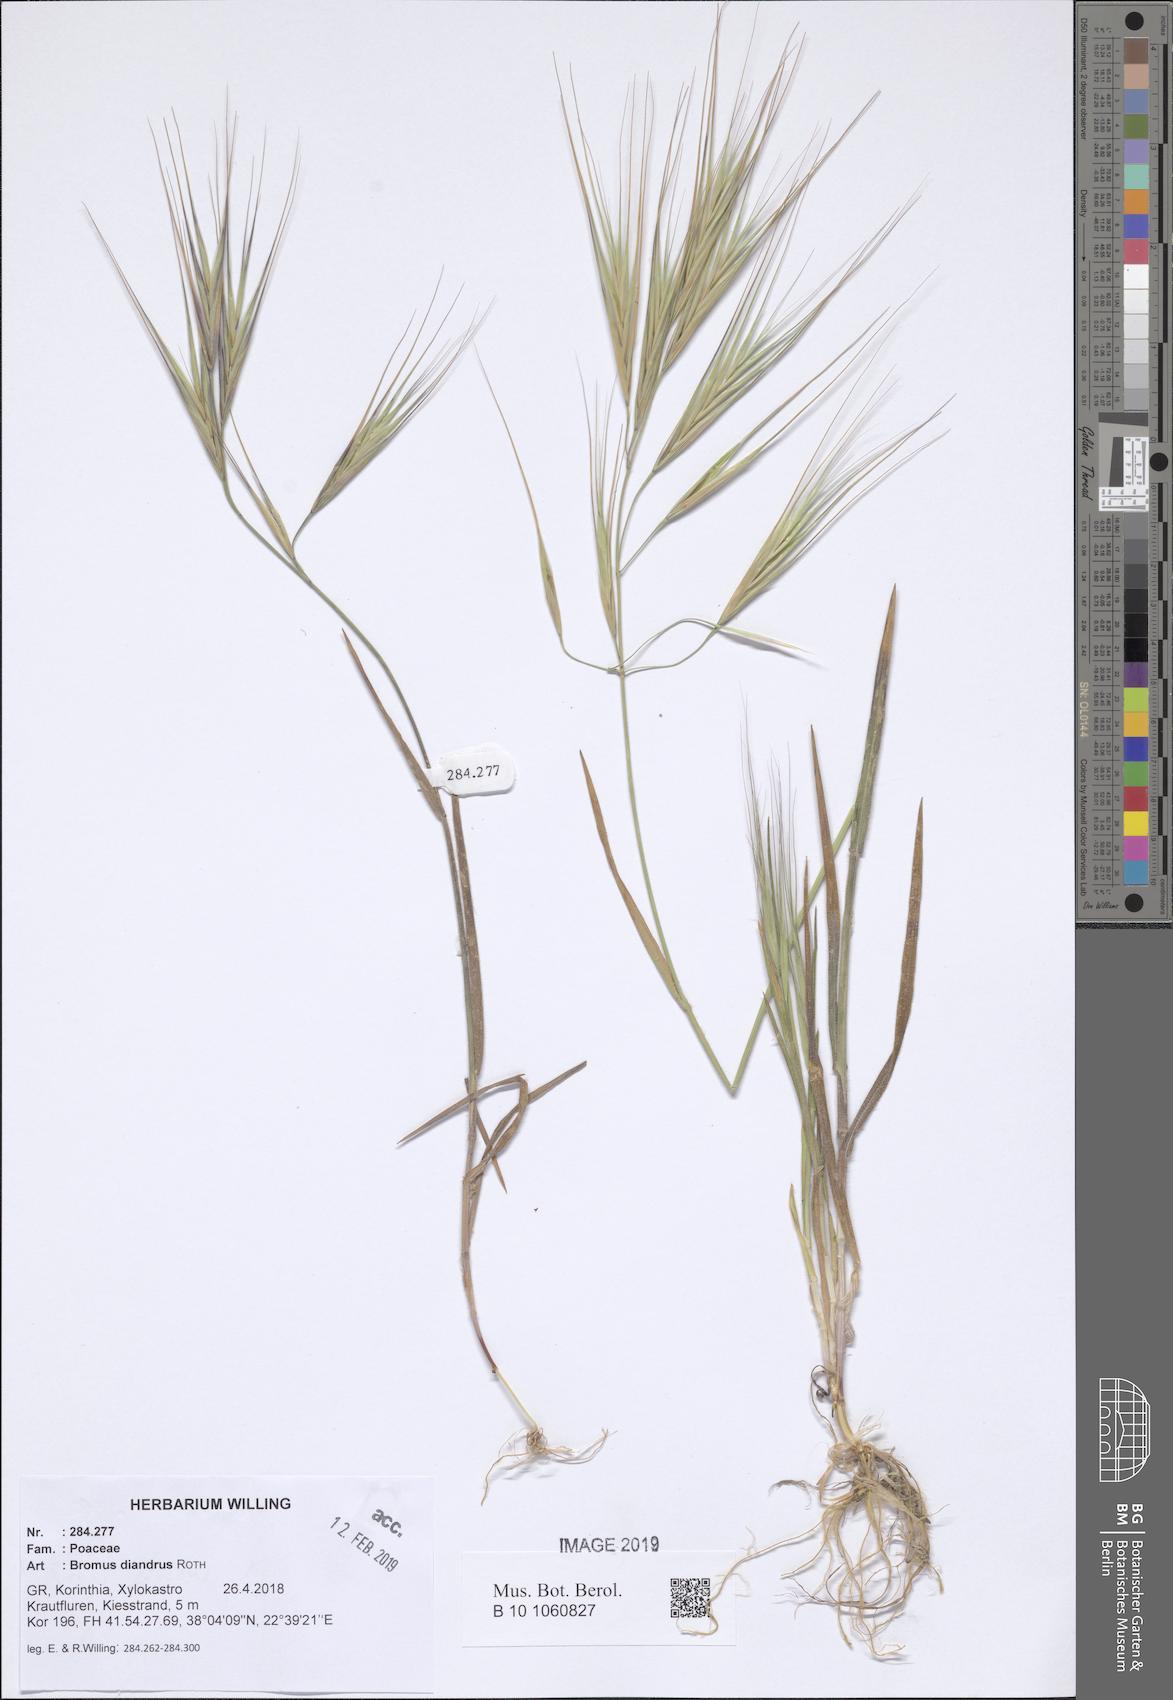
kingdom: Plantae
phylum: Tracheophyta
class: Liliopsida
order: Poales
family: Poaceae
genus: Bromus
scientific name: Bromus diandrus
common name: Ripgut brome
